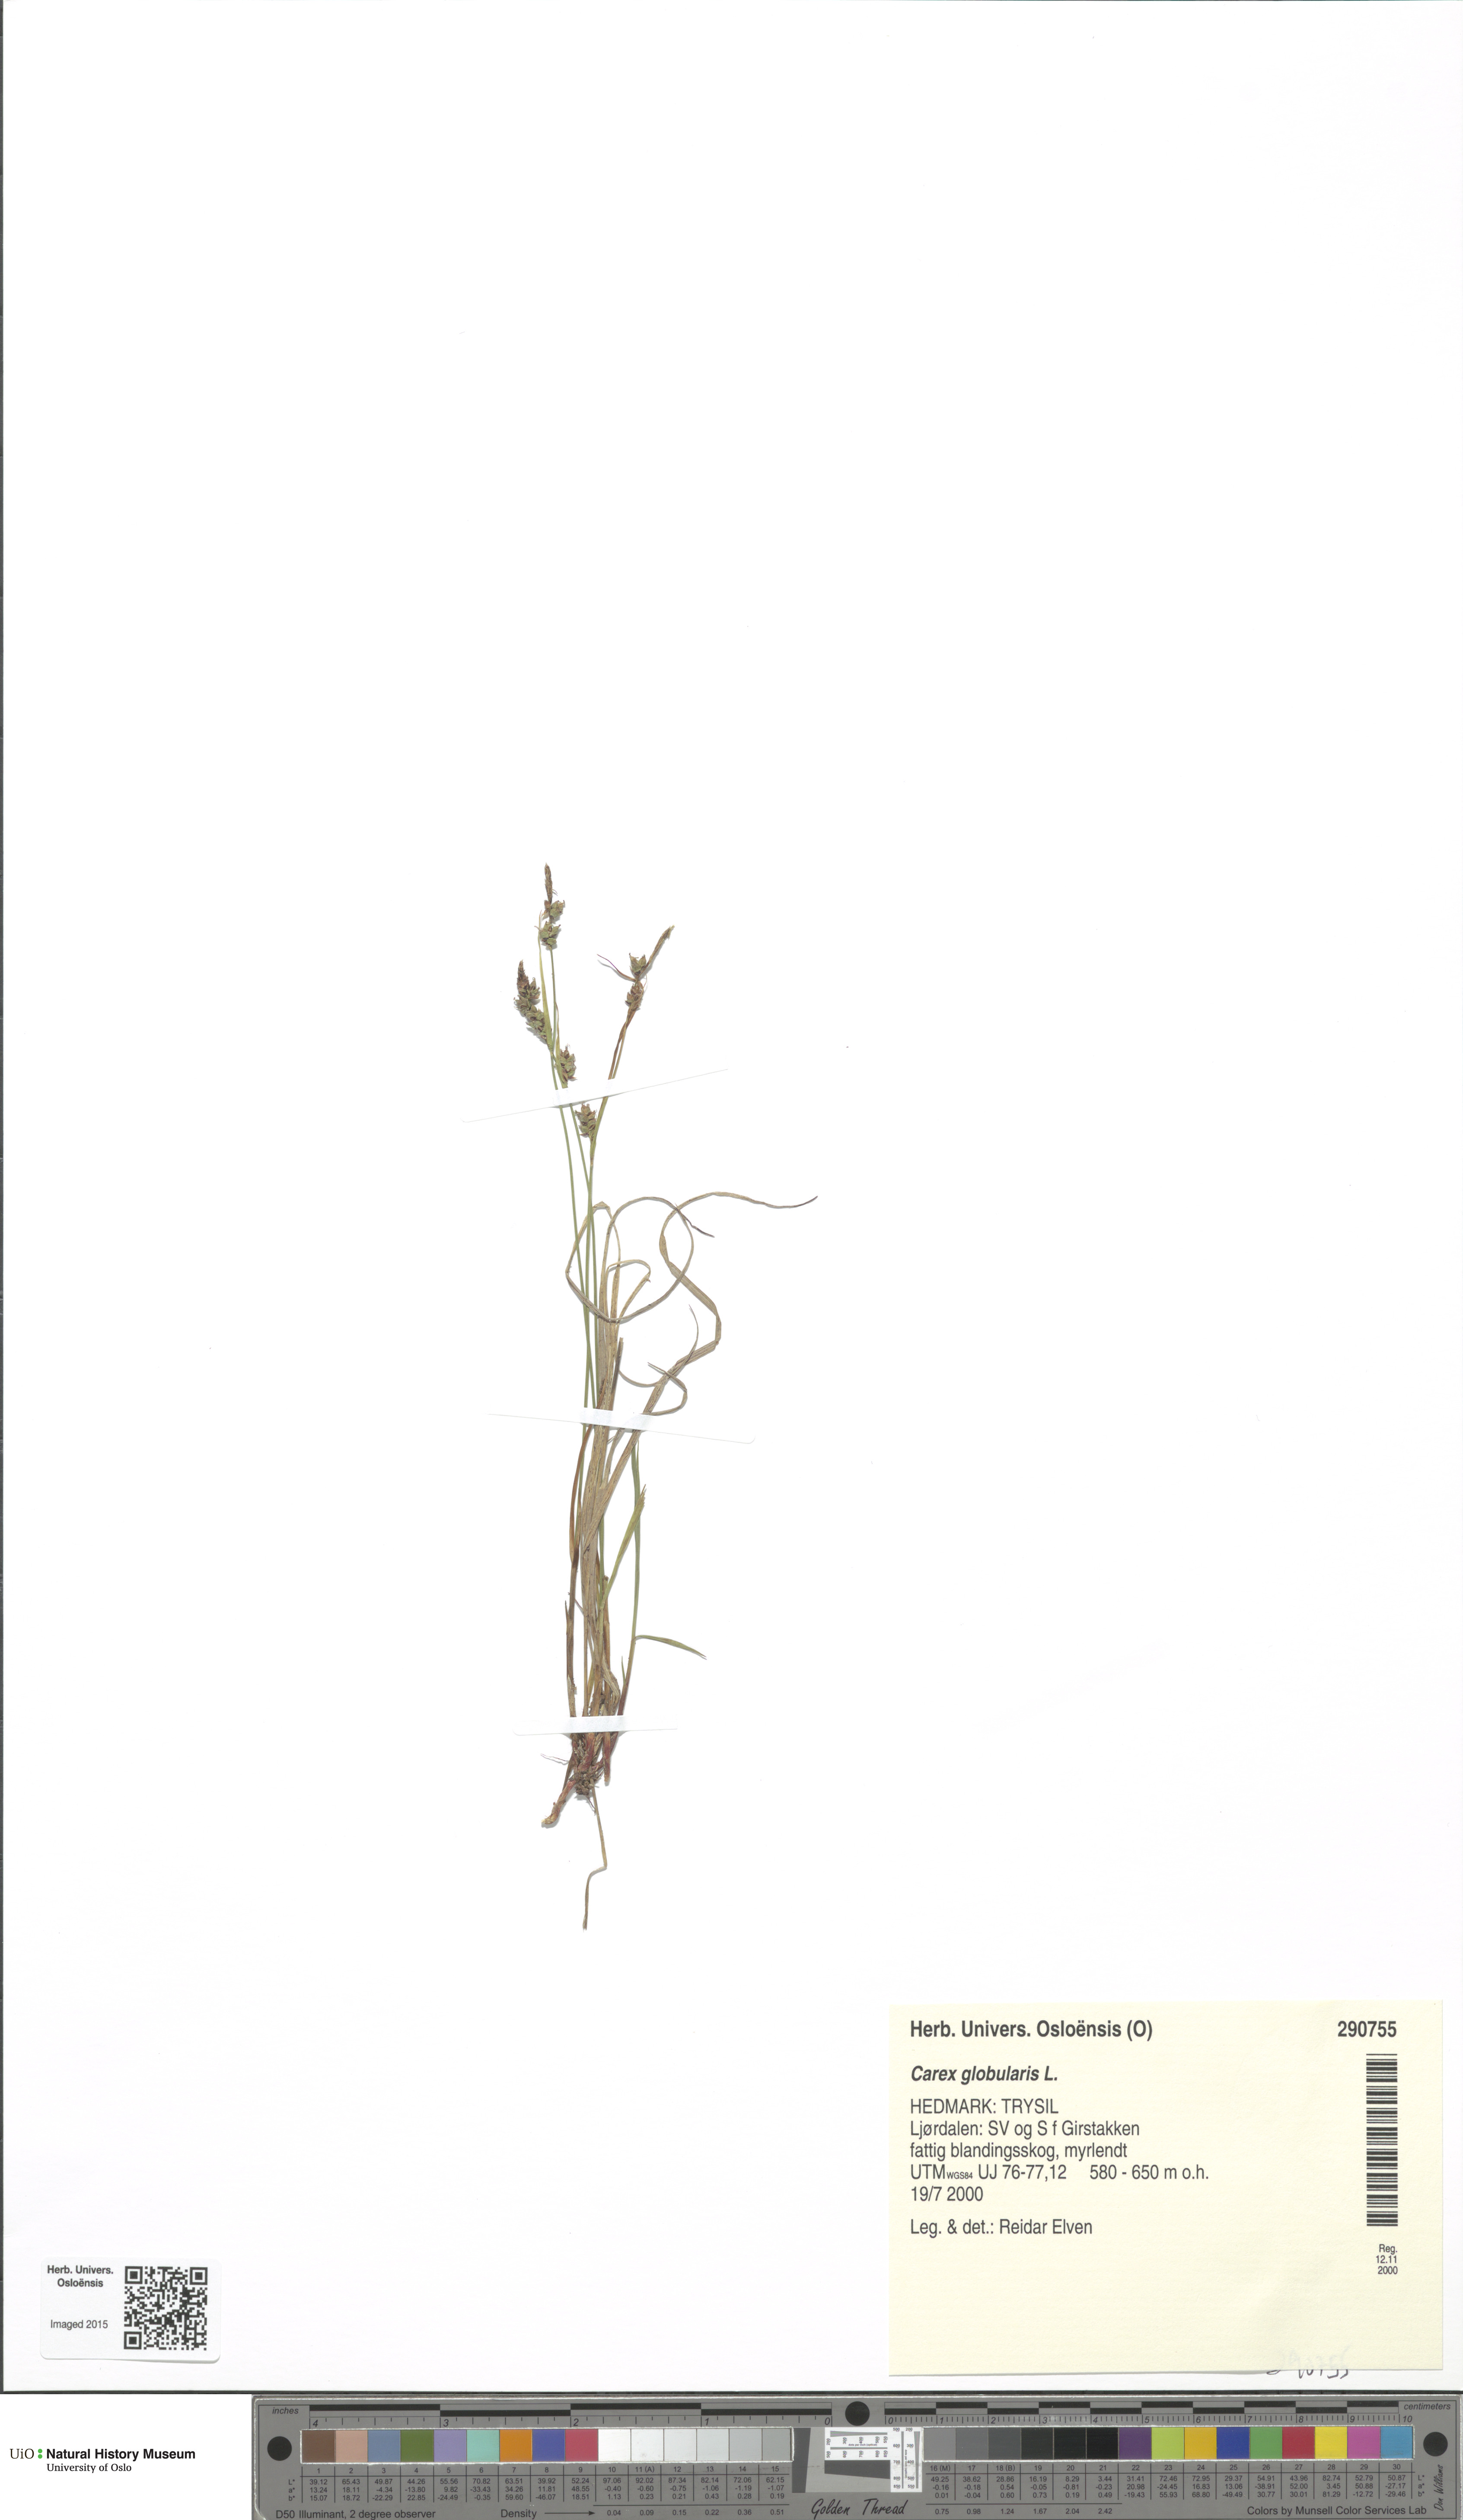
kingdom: Plantae
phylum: Tracheophyta
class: Liliopsida
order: Poales
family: Cyperaceae
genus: Carex
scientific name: Carex globularis
